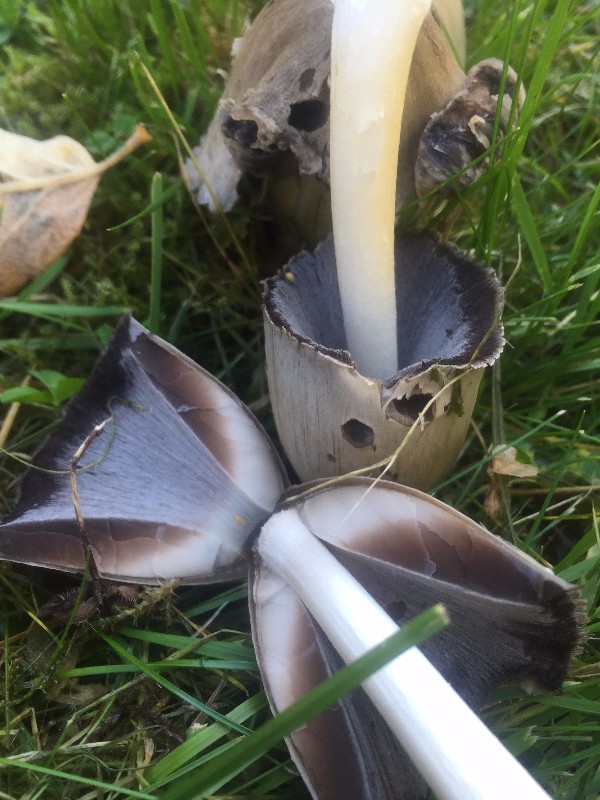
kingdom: Fungi
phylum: Basidiomycota
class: Agaricomycetes
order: Agaricales
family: Psathyrellaceae
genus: Coprinopsis
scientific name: Coprinopsis atramentaria
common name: almindelig blækhat
